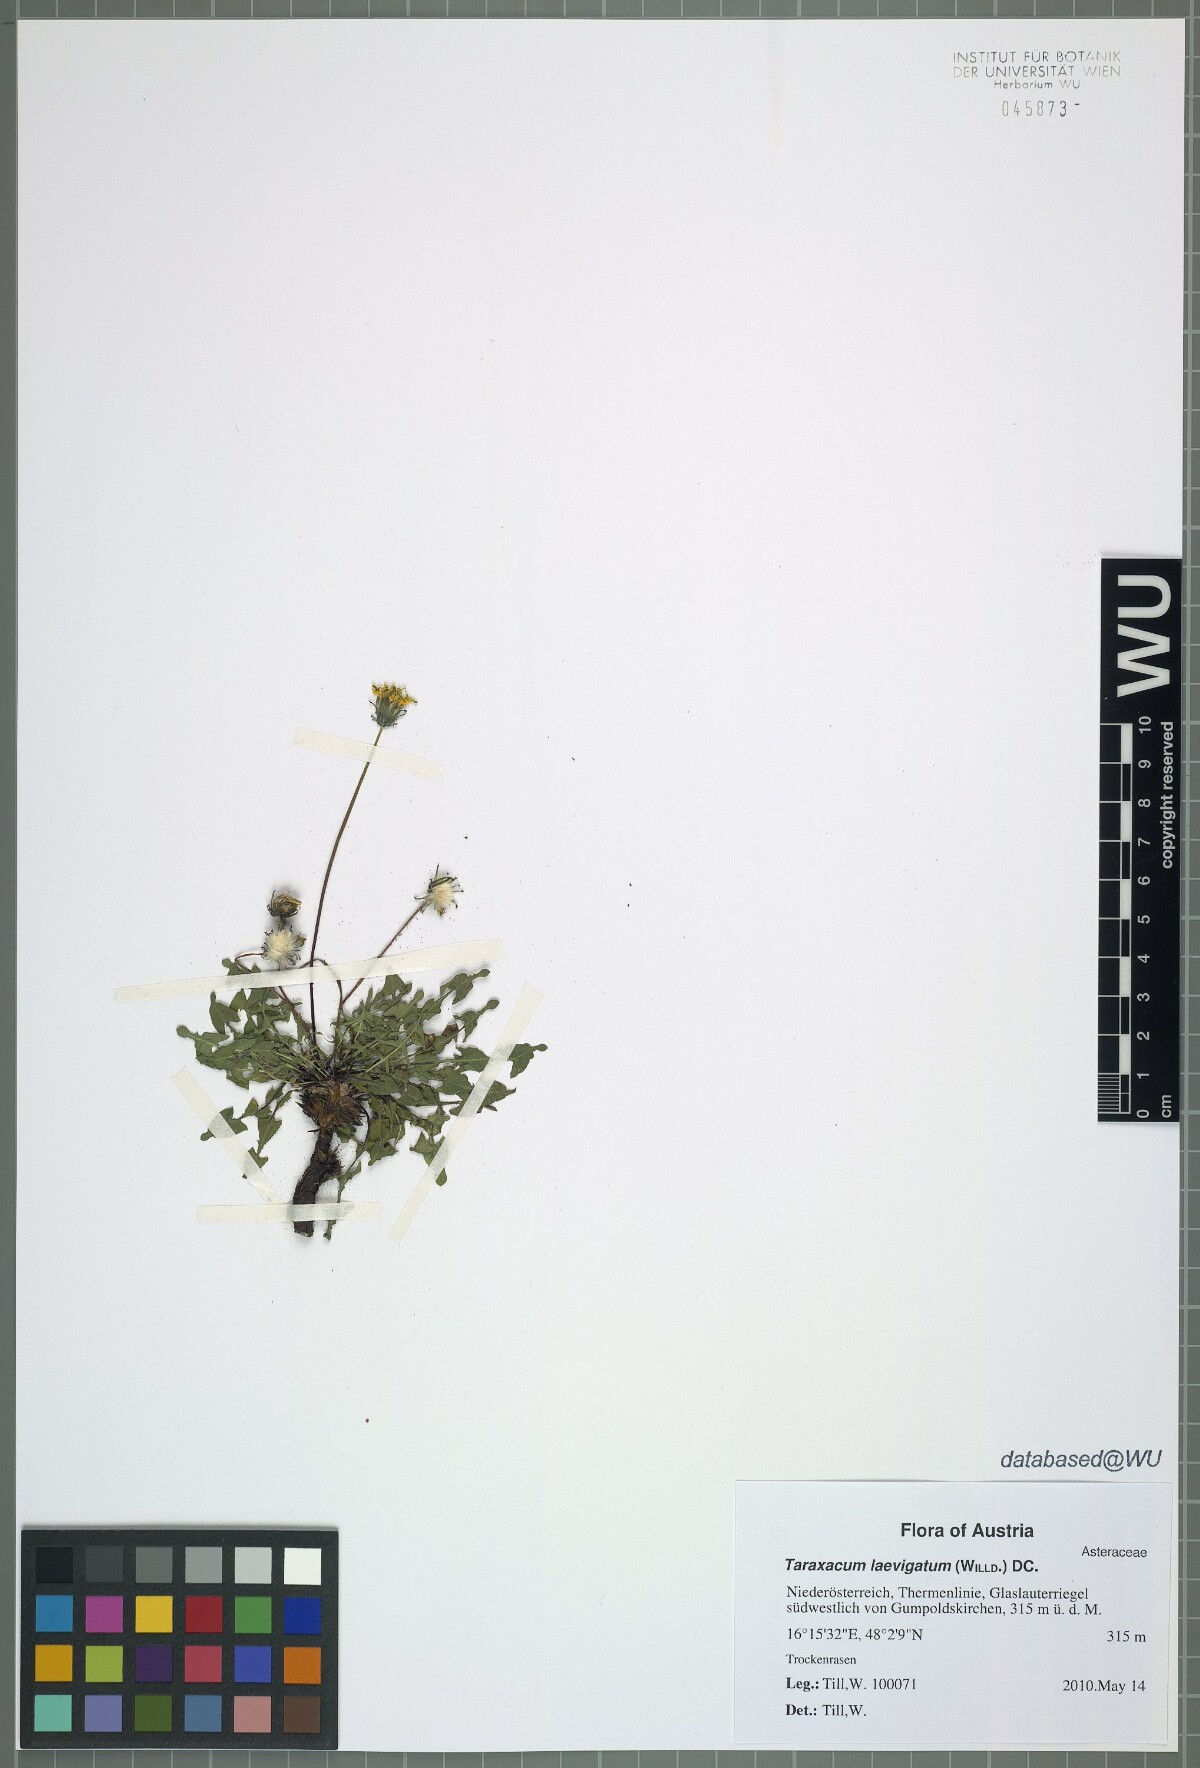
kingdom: Plantae
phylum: Tracheophyta
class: Magnoliopsida
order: Asterales
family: Asteraceae
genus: Taraxacum
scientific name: Taraxacum
